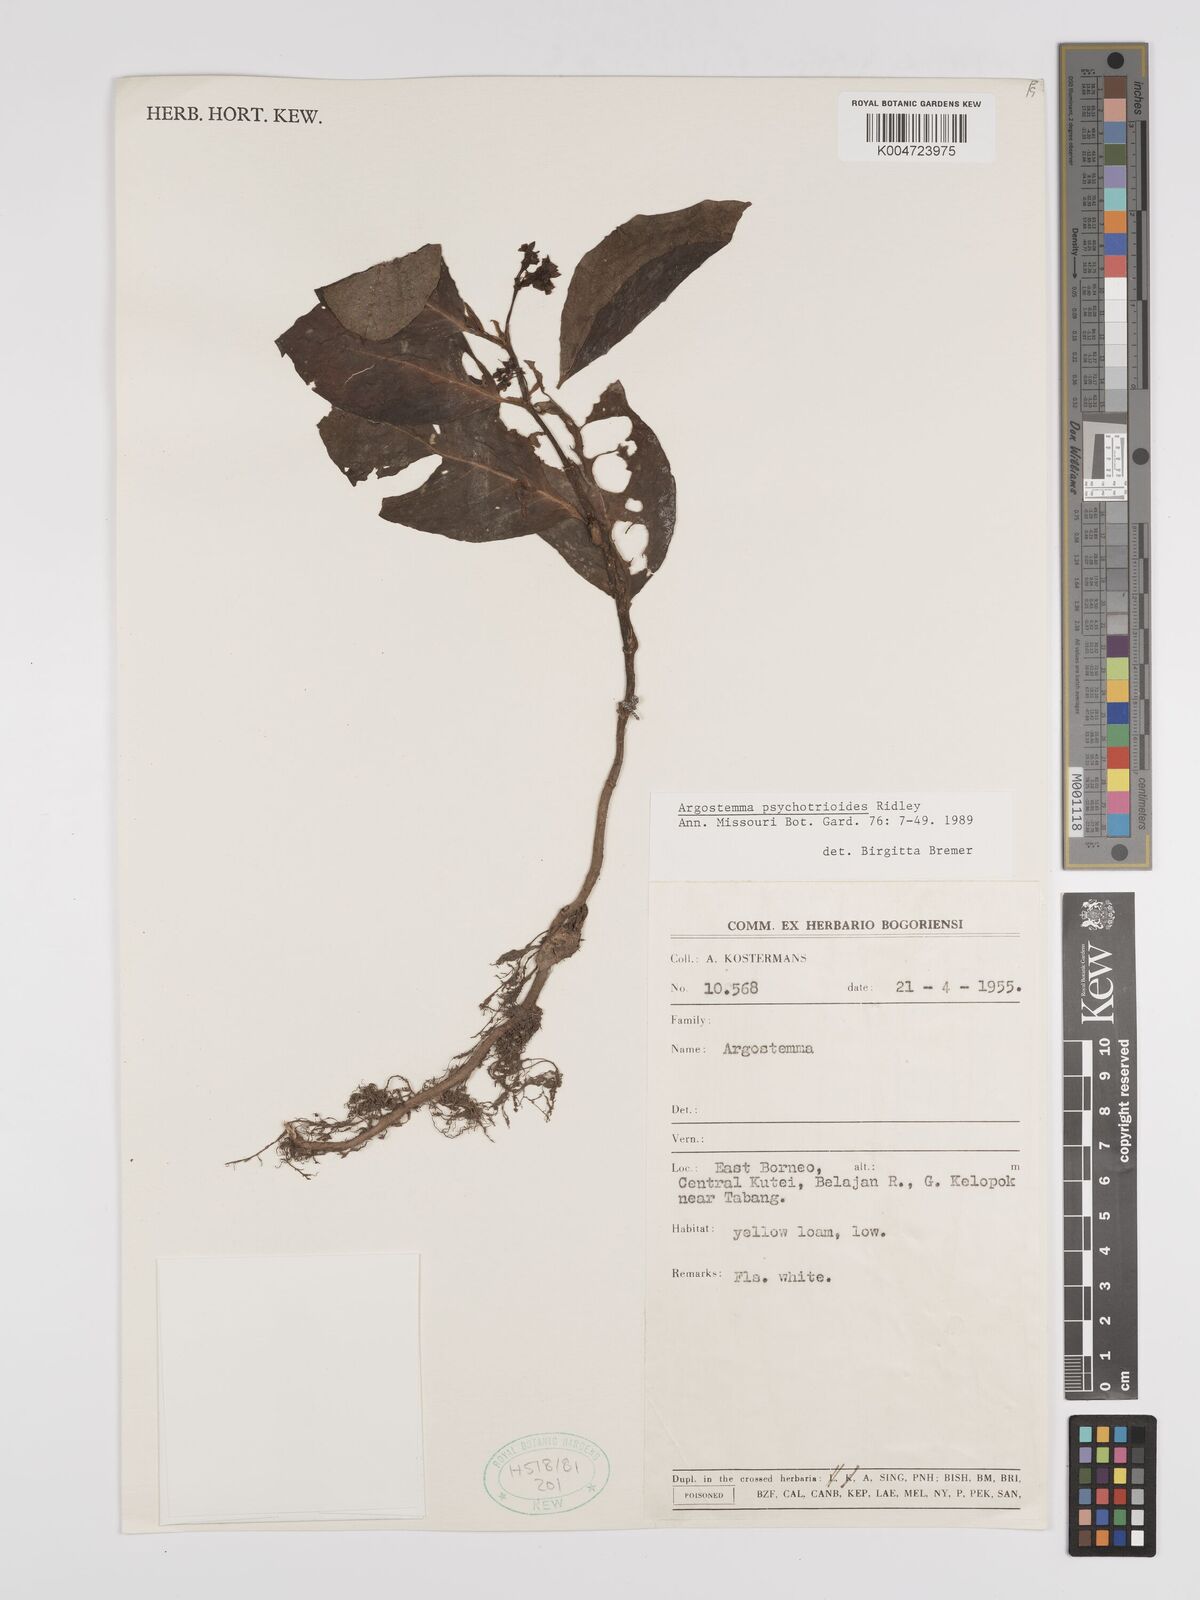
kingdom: Plantae
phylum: Tracheophyta
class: Magnoliopsida
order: Gentianales
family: Rubiaceae
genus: Argostemma
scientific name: Argostemma psychotrioides
